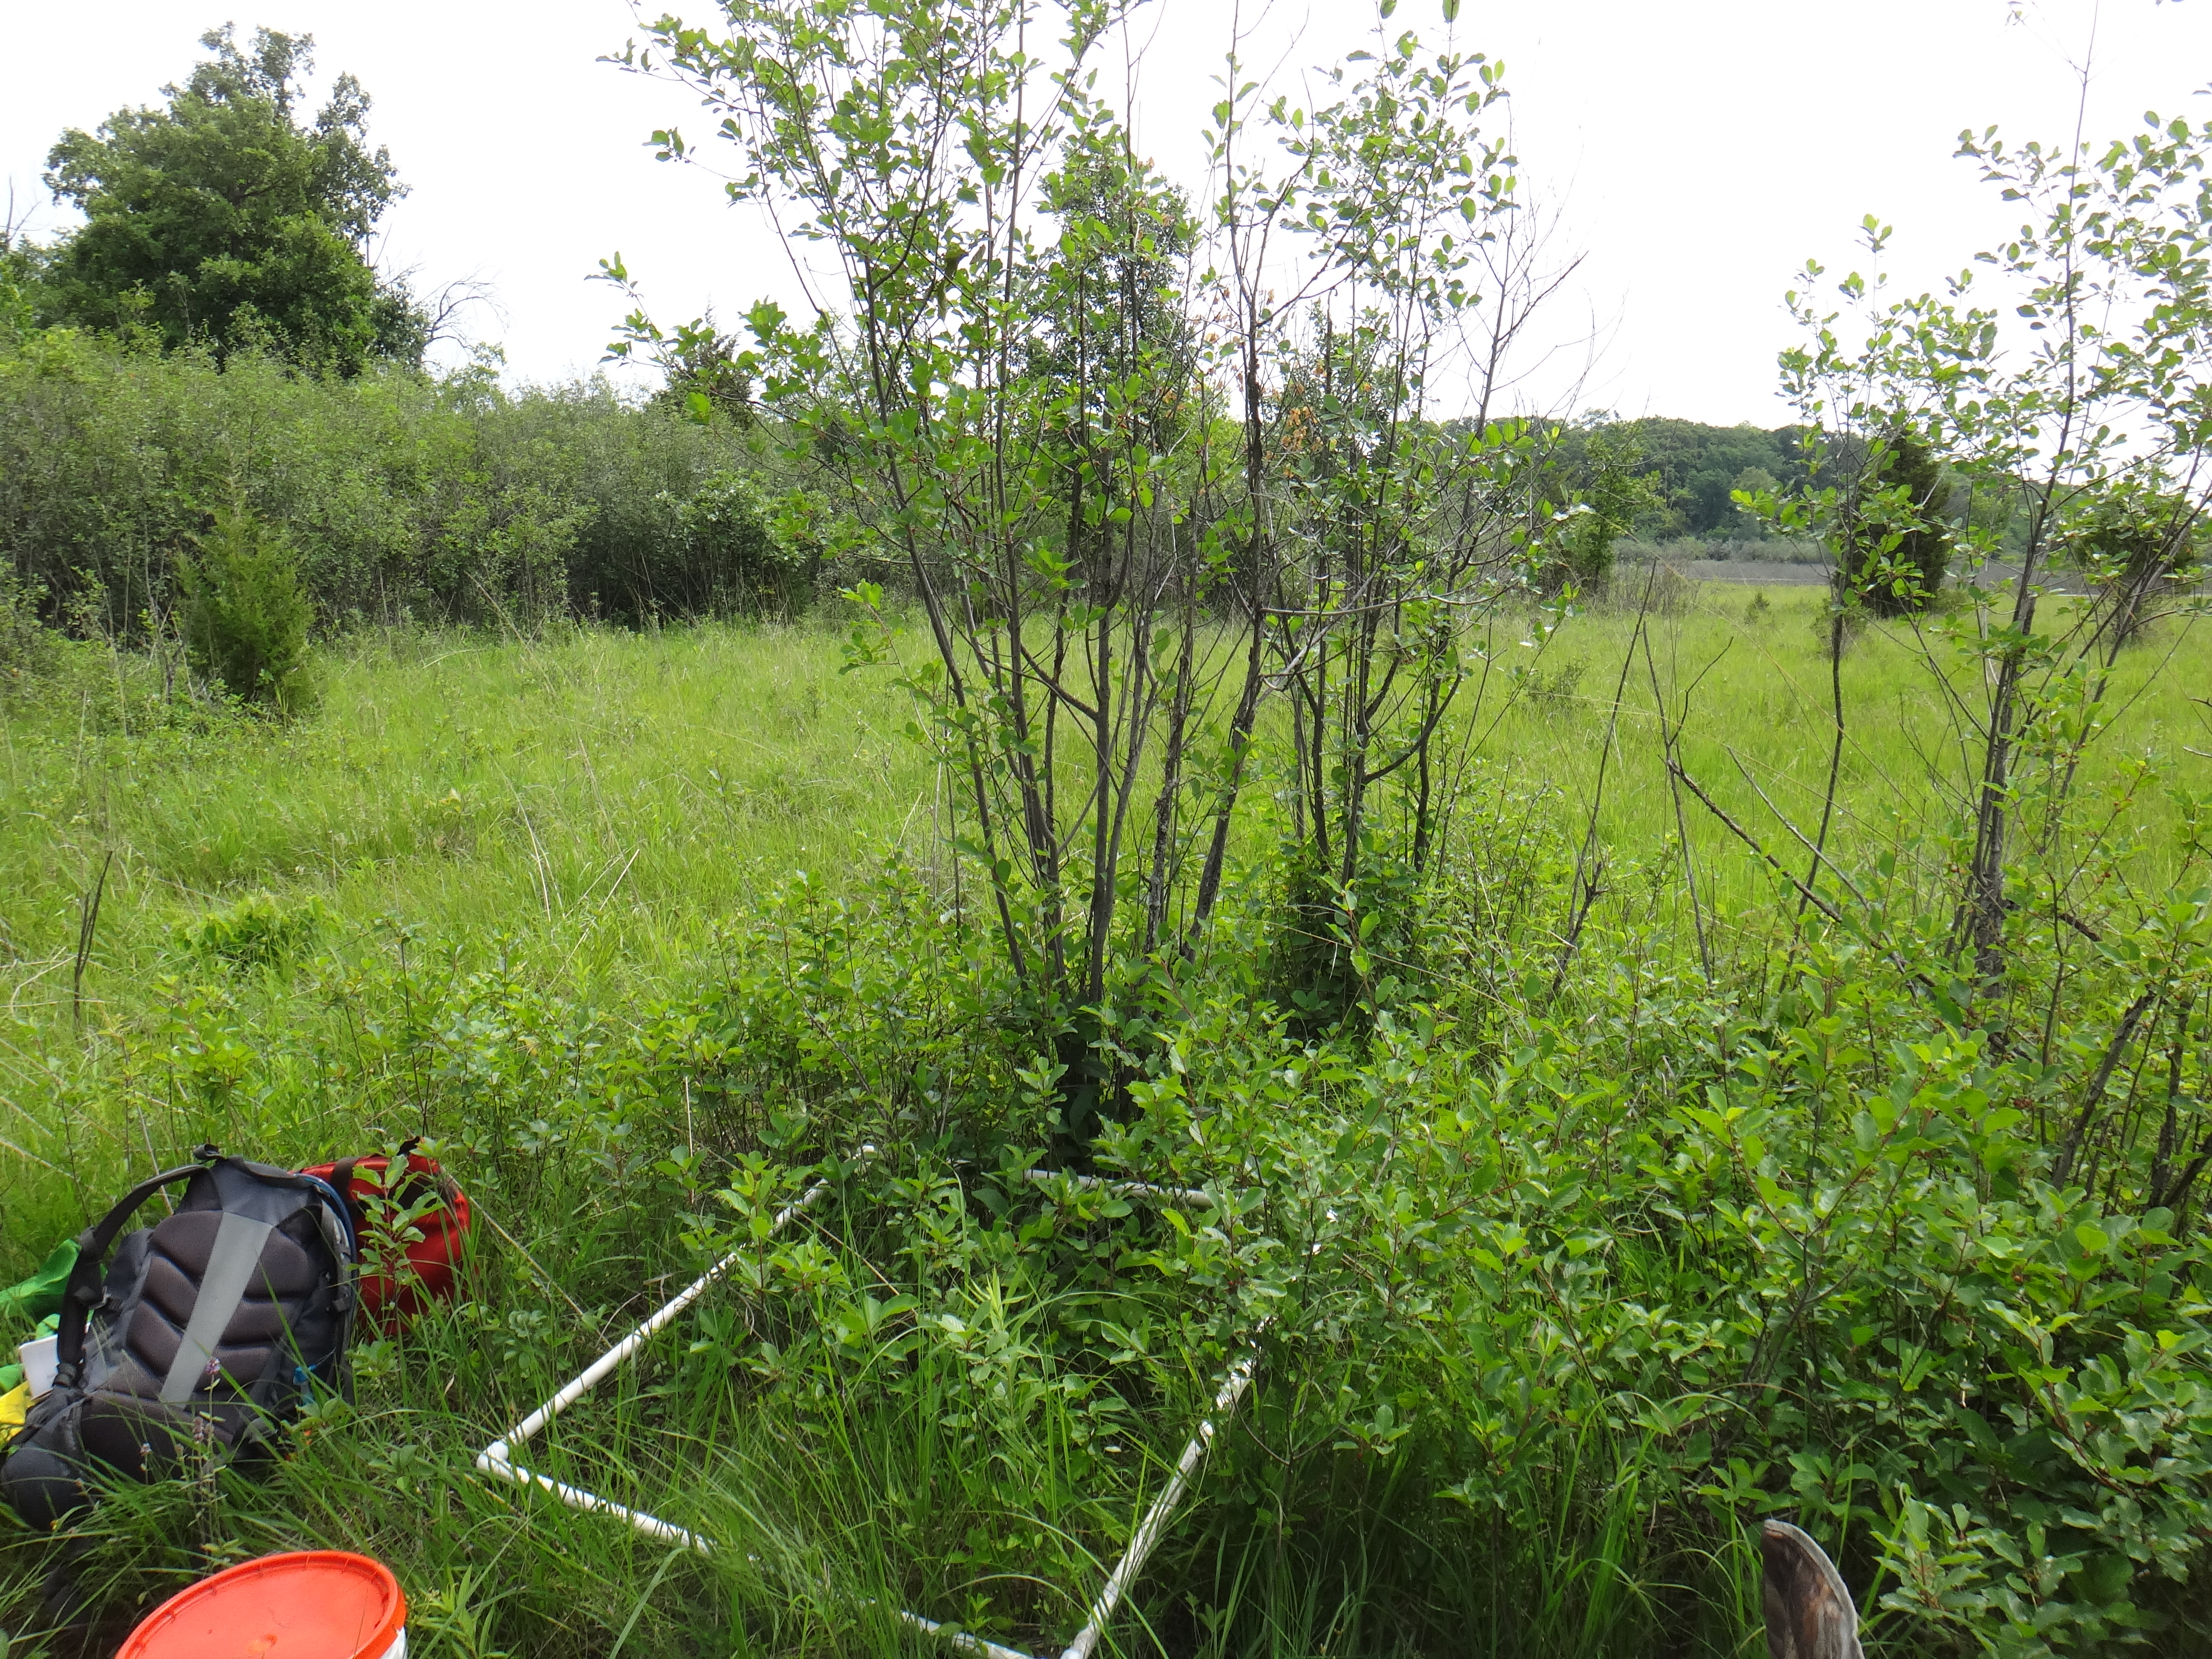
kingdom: Plantae
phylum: Tracheophyta
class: Magnoliopsida
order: Rosales
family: Rosaceae
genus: Potentilla
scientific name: Potentilla
